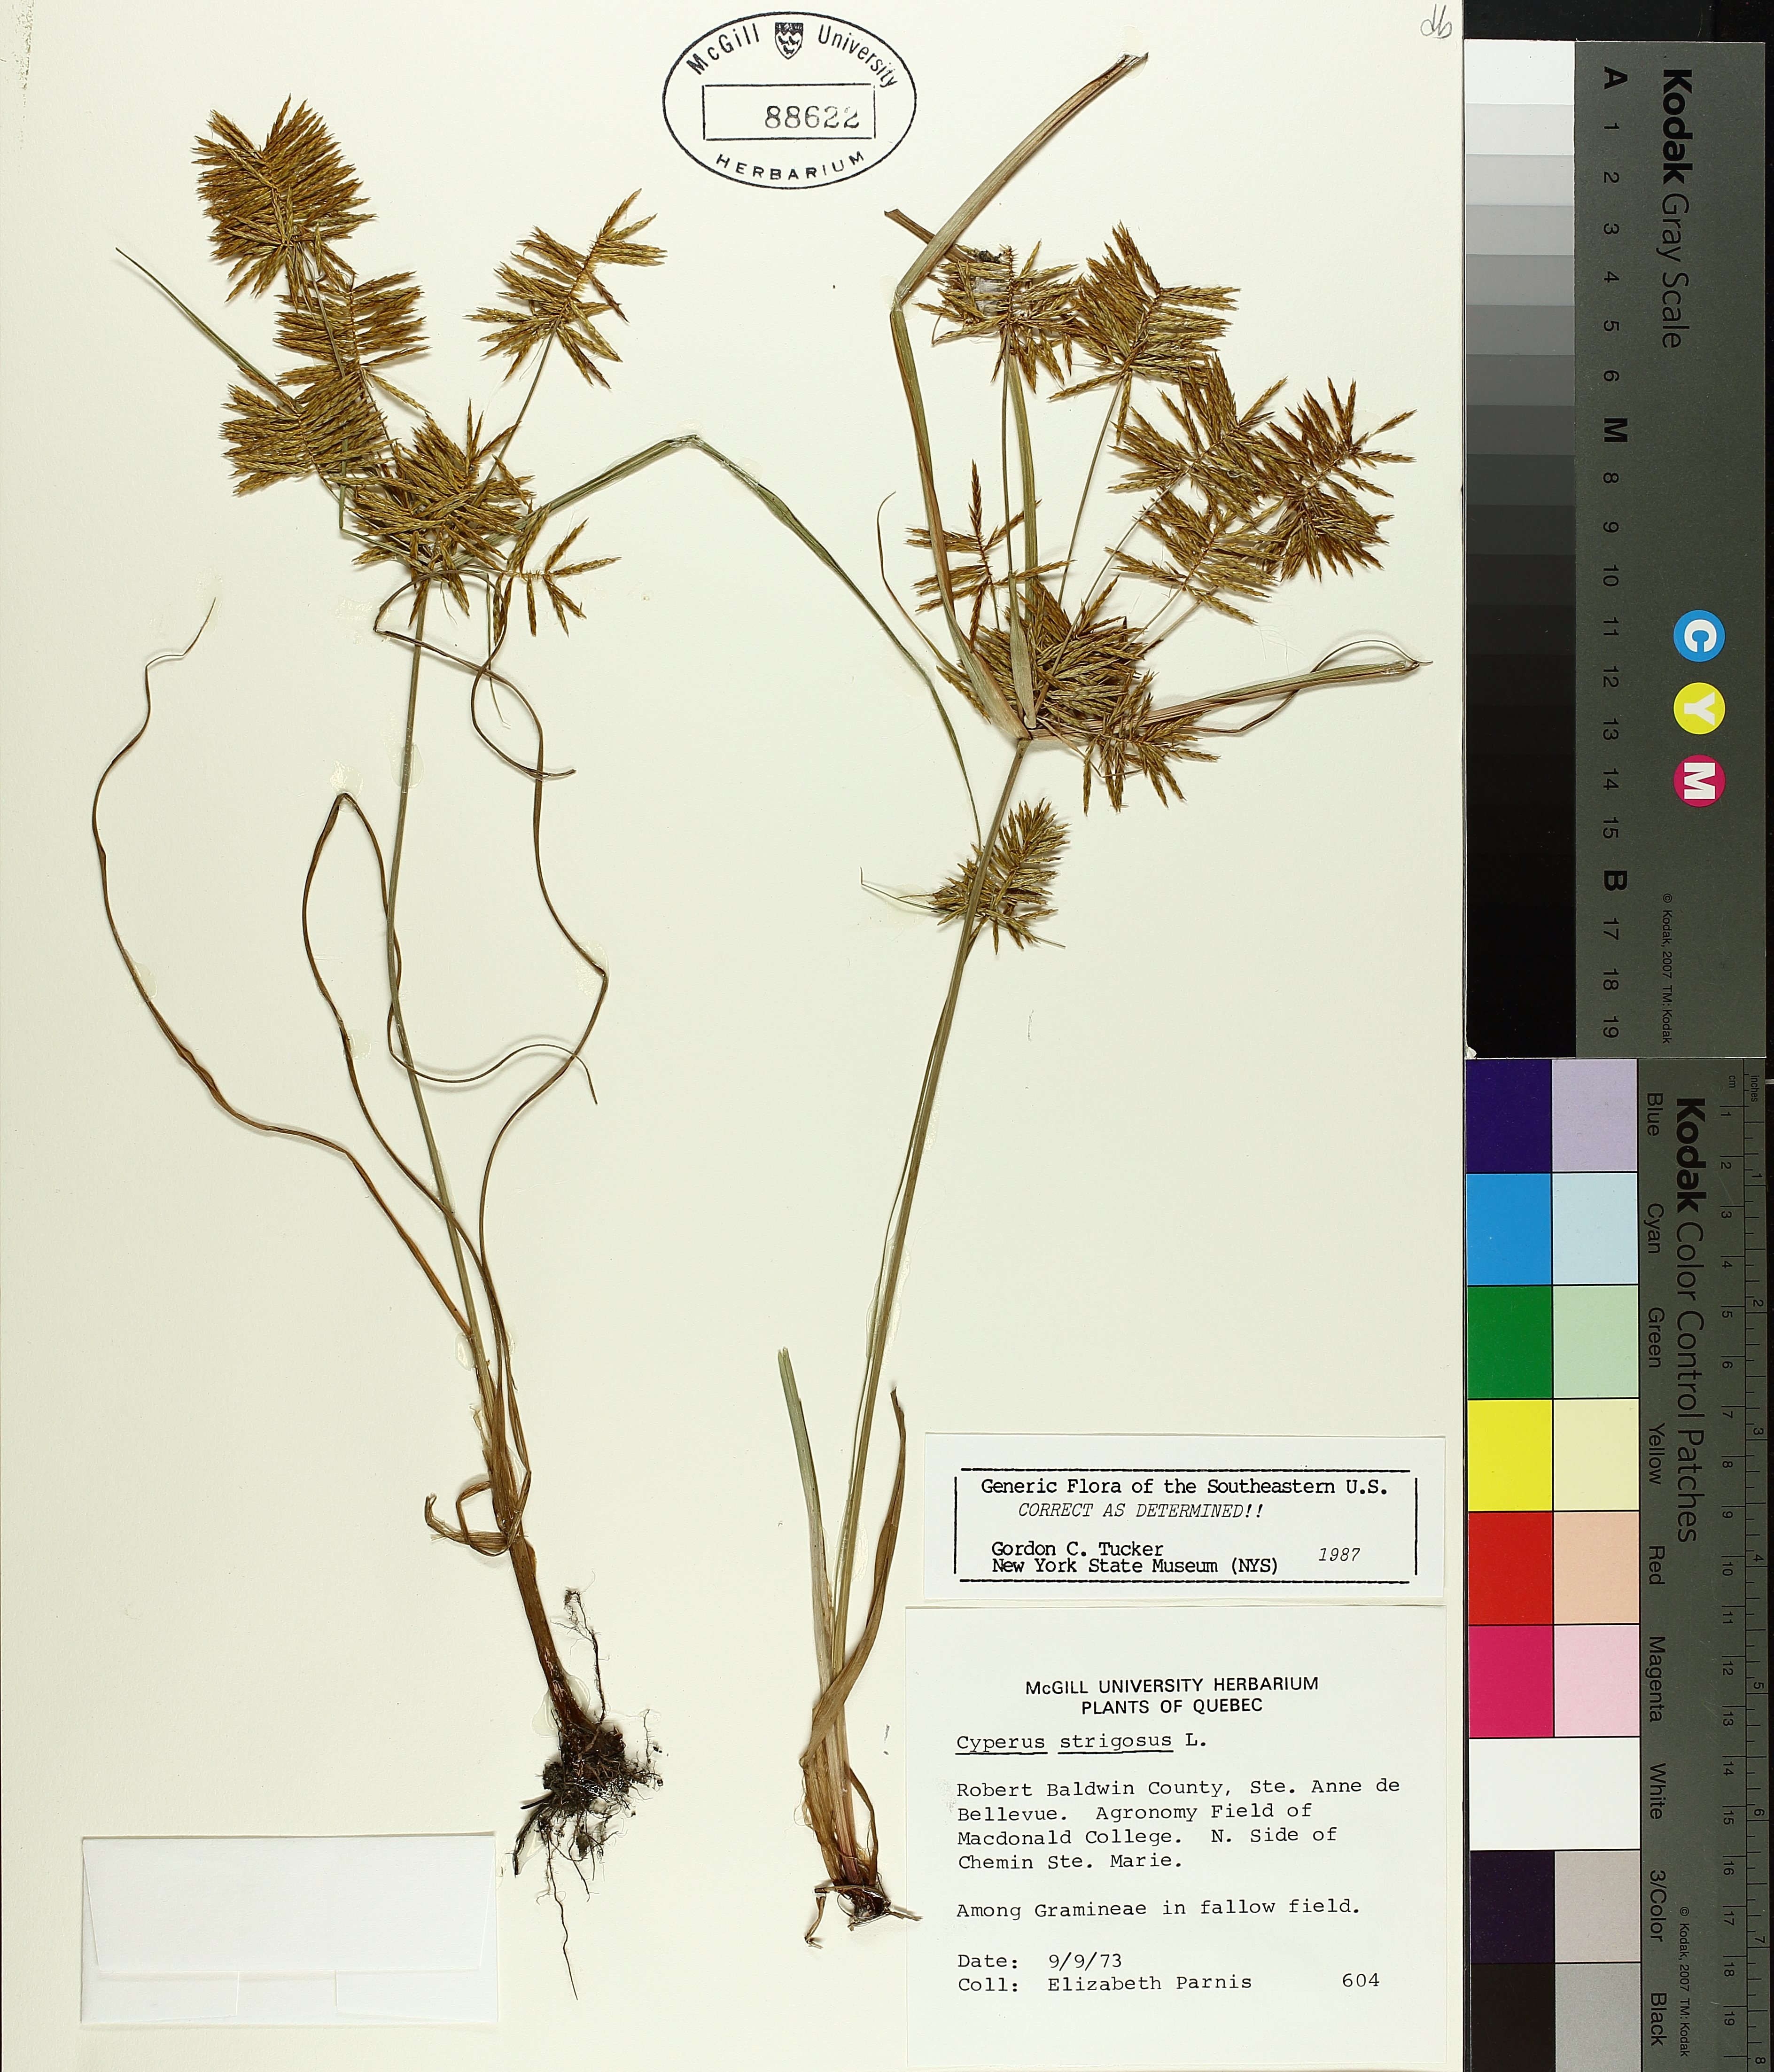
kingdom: Plantae
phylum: Tracheophyta
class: Liliopsida
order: Poales
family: Cyperaceae
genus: Cyperus
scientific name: Cyperus strigosus
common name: False nutsedge
